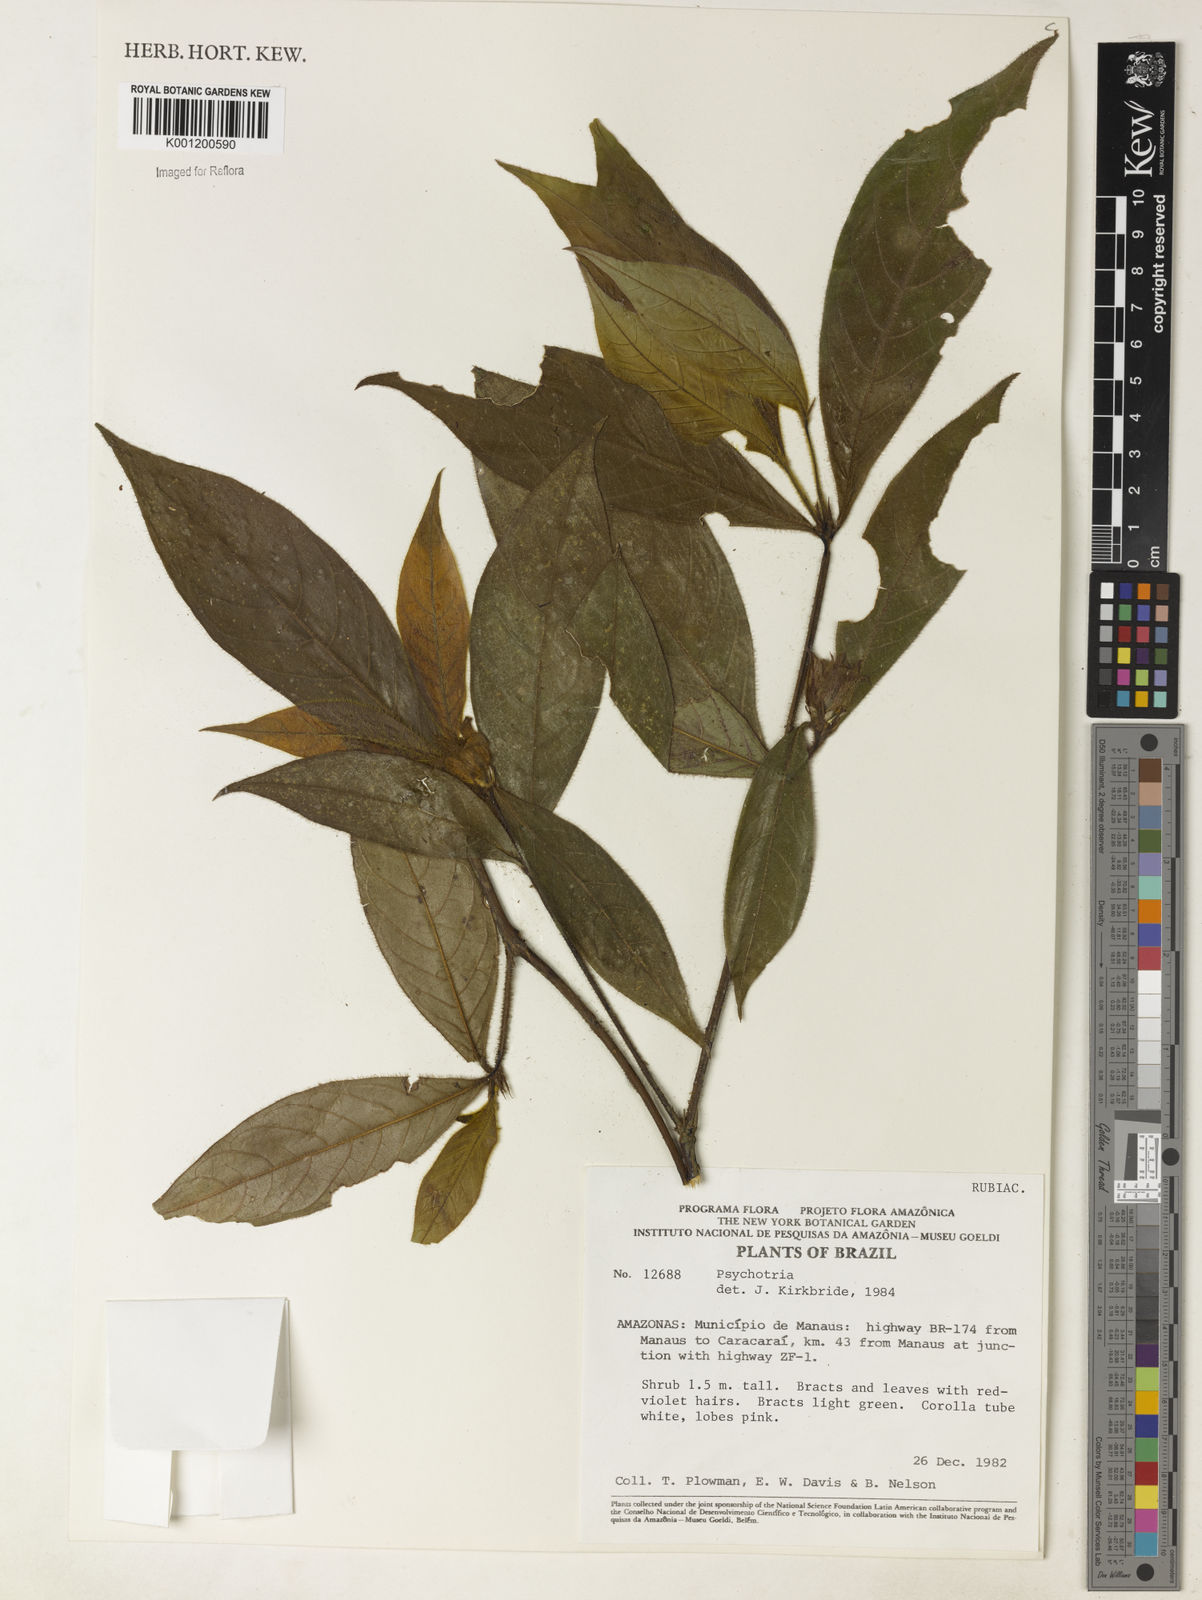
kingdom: Plantae
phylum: Tracheophyta
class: Magnoliopsida
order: Gentianales
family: Rubiaceae
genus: Psychotria
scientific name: Psychotria
